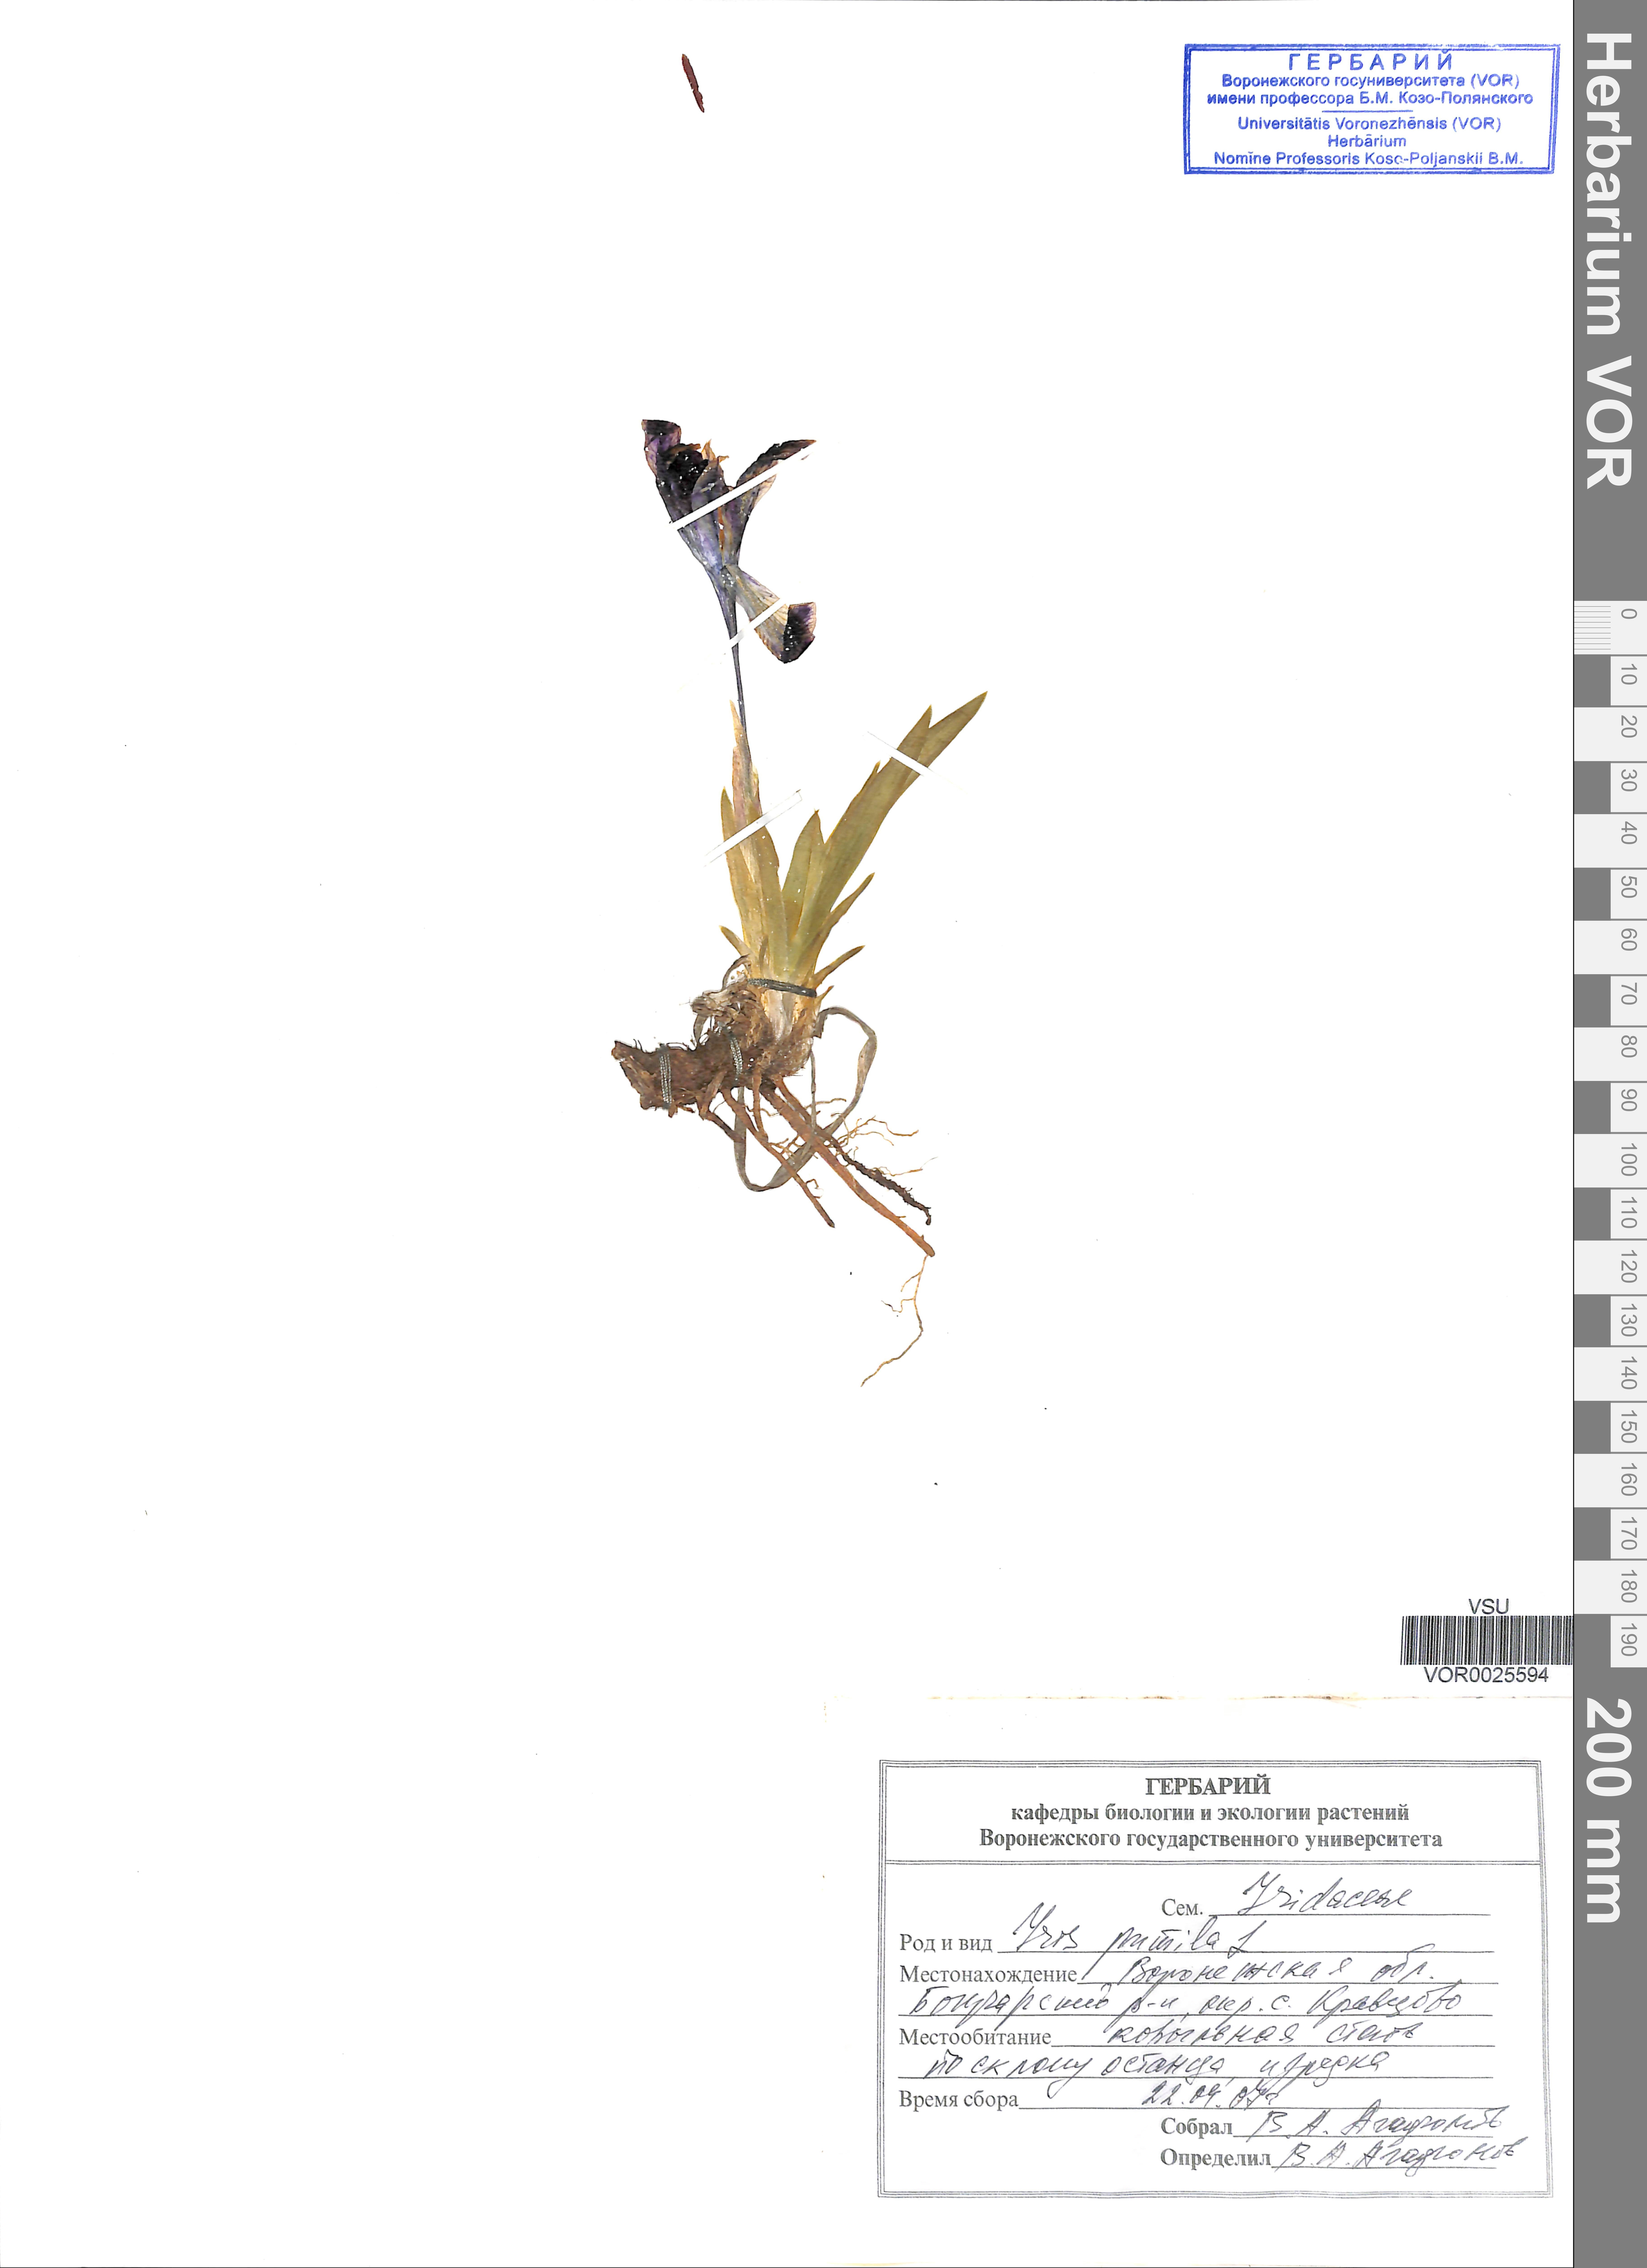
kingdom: Plantae
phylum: Tracheophyta
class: Liliopsida
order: Asparagales
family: Iridaceae
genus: Iris
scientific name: Iris pumila
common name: Dwarf iris
